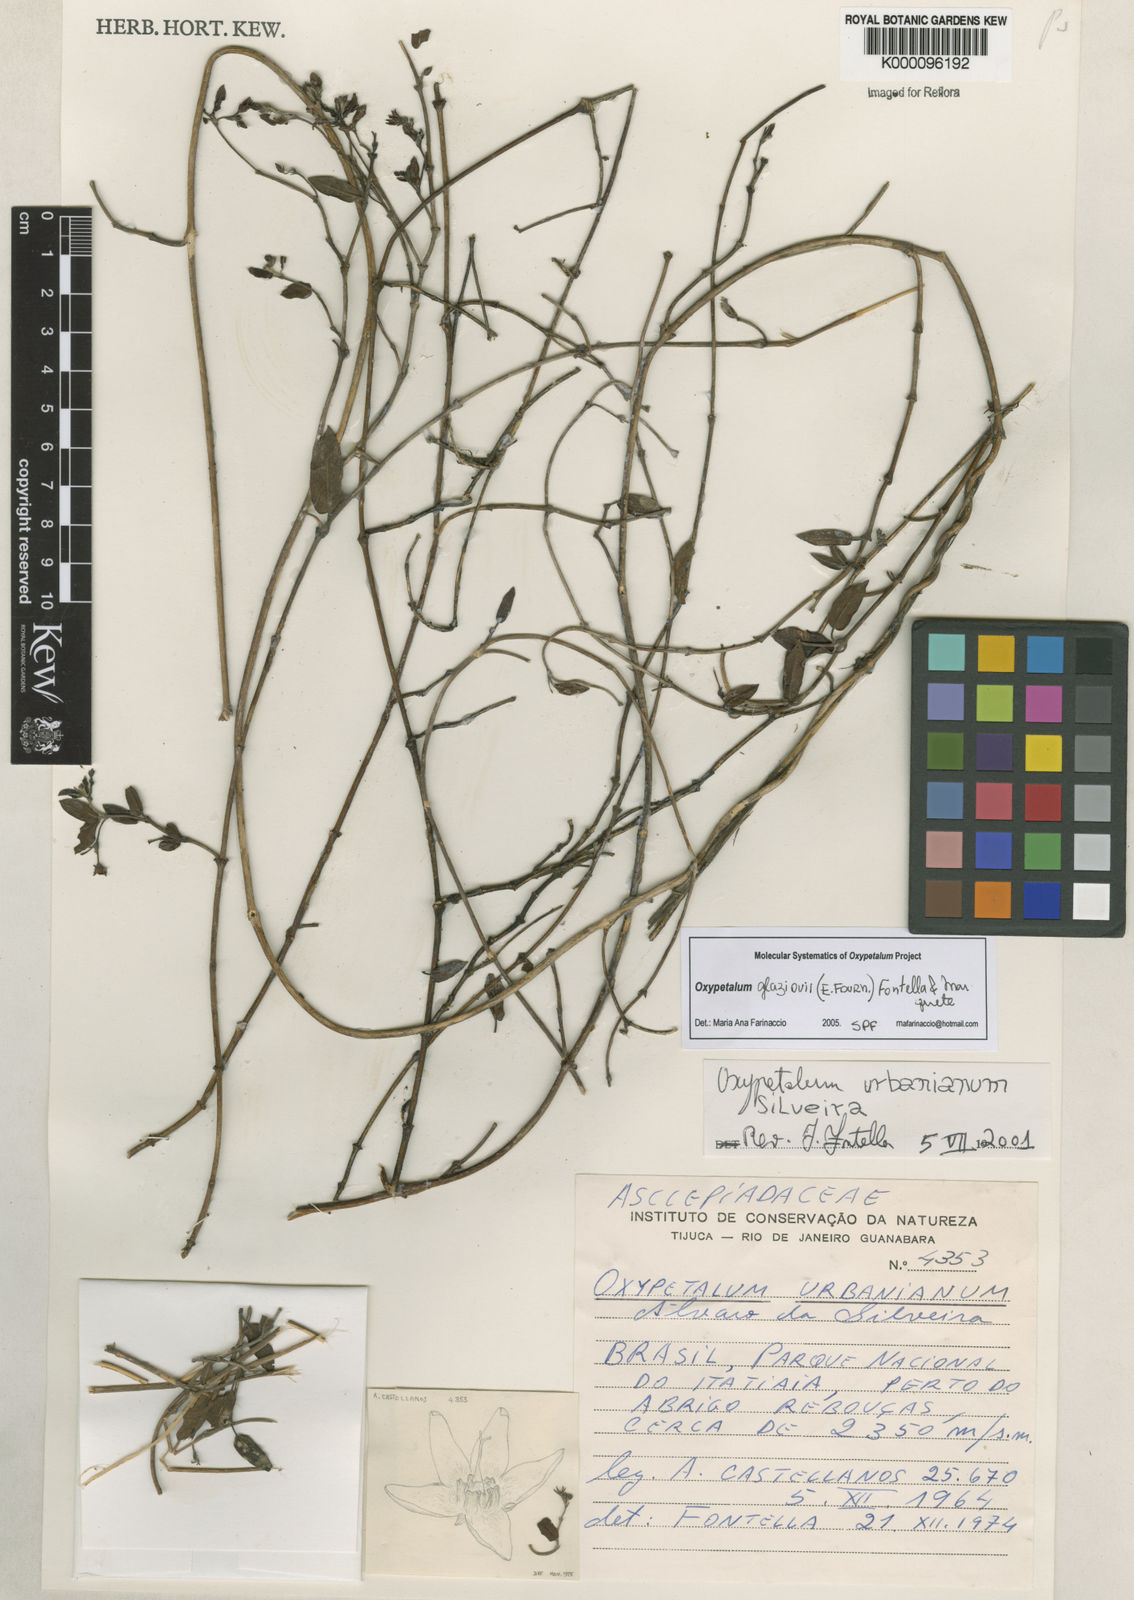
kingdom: Plantae
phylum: Tracheophyta
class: Magnoliopsida
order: Gentianales
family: Apocynaceae
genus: Oxypetalum
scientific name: Oxypetalum glaziovii
